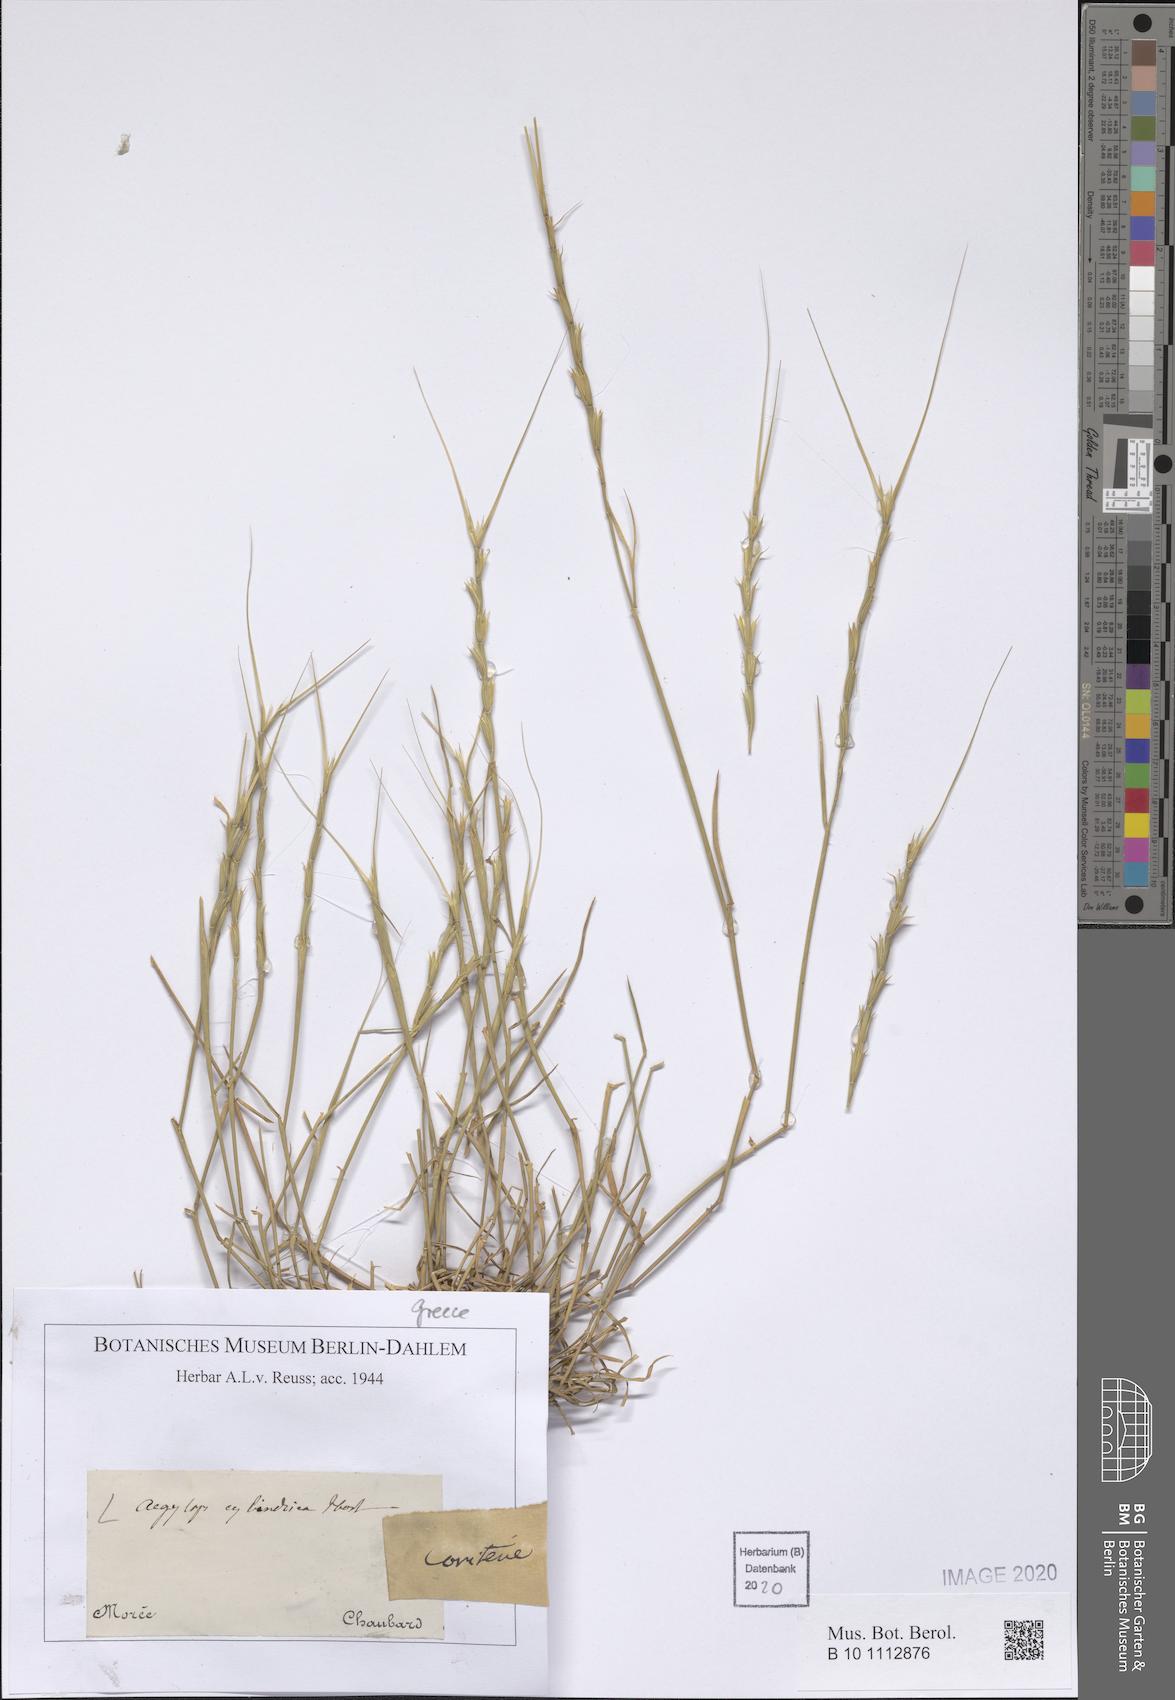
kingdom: Plantae
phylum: Tracheophyta
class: Liliopsida
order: Poales
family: Poaceae
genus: Aegilops
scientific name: Aegilops cylindrica
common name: Jointed goatgrass
